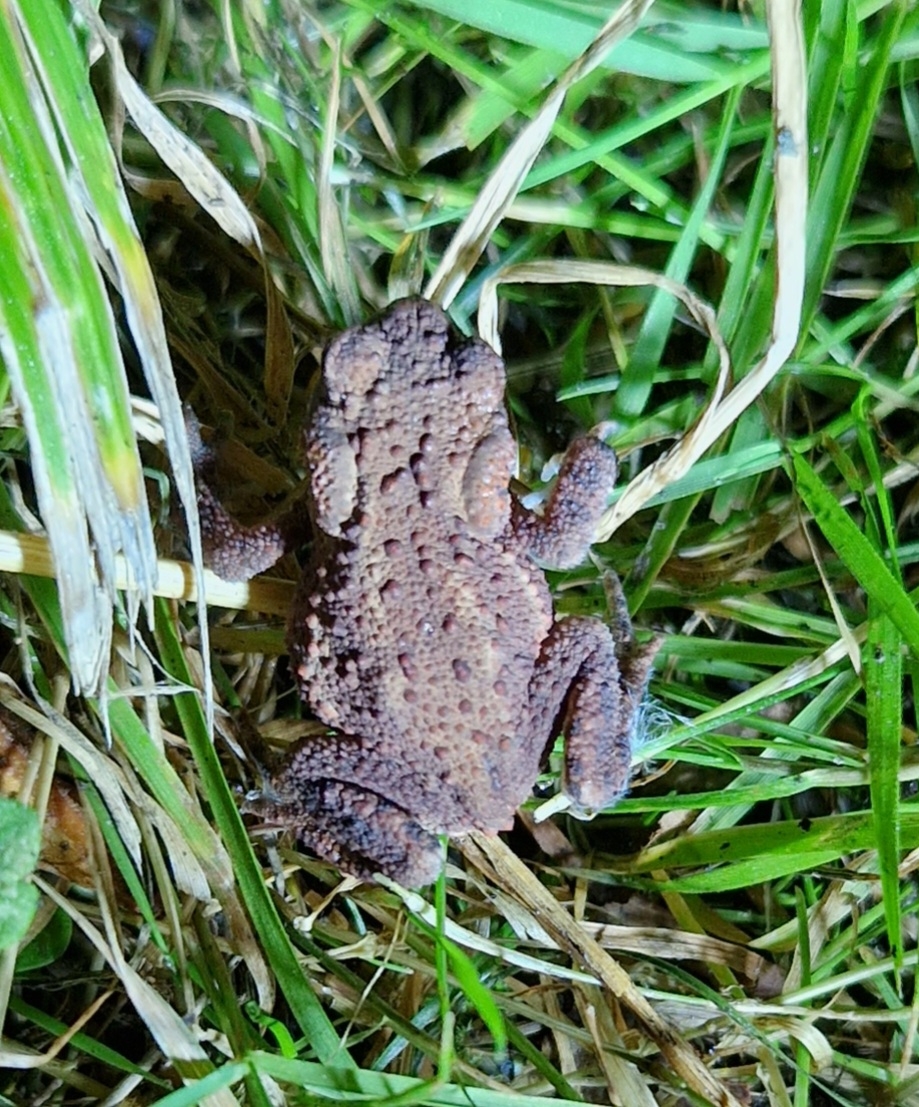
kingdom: Animalia
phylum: Chordata
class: Amphibia
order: Anura
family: Bufonidae
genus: Bufo
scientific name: Bufo bufo
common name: Skrubtudse
